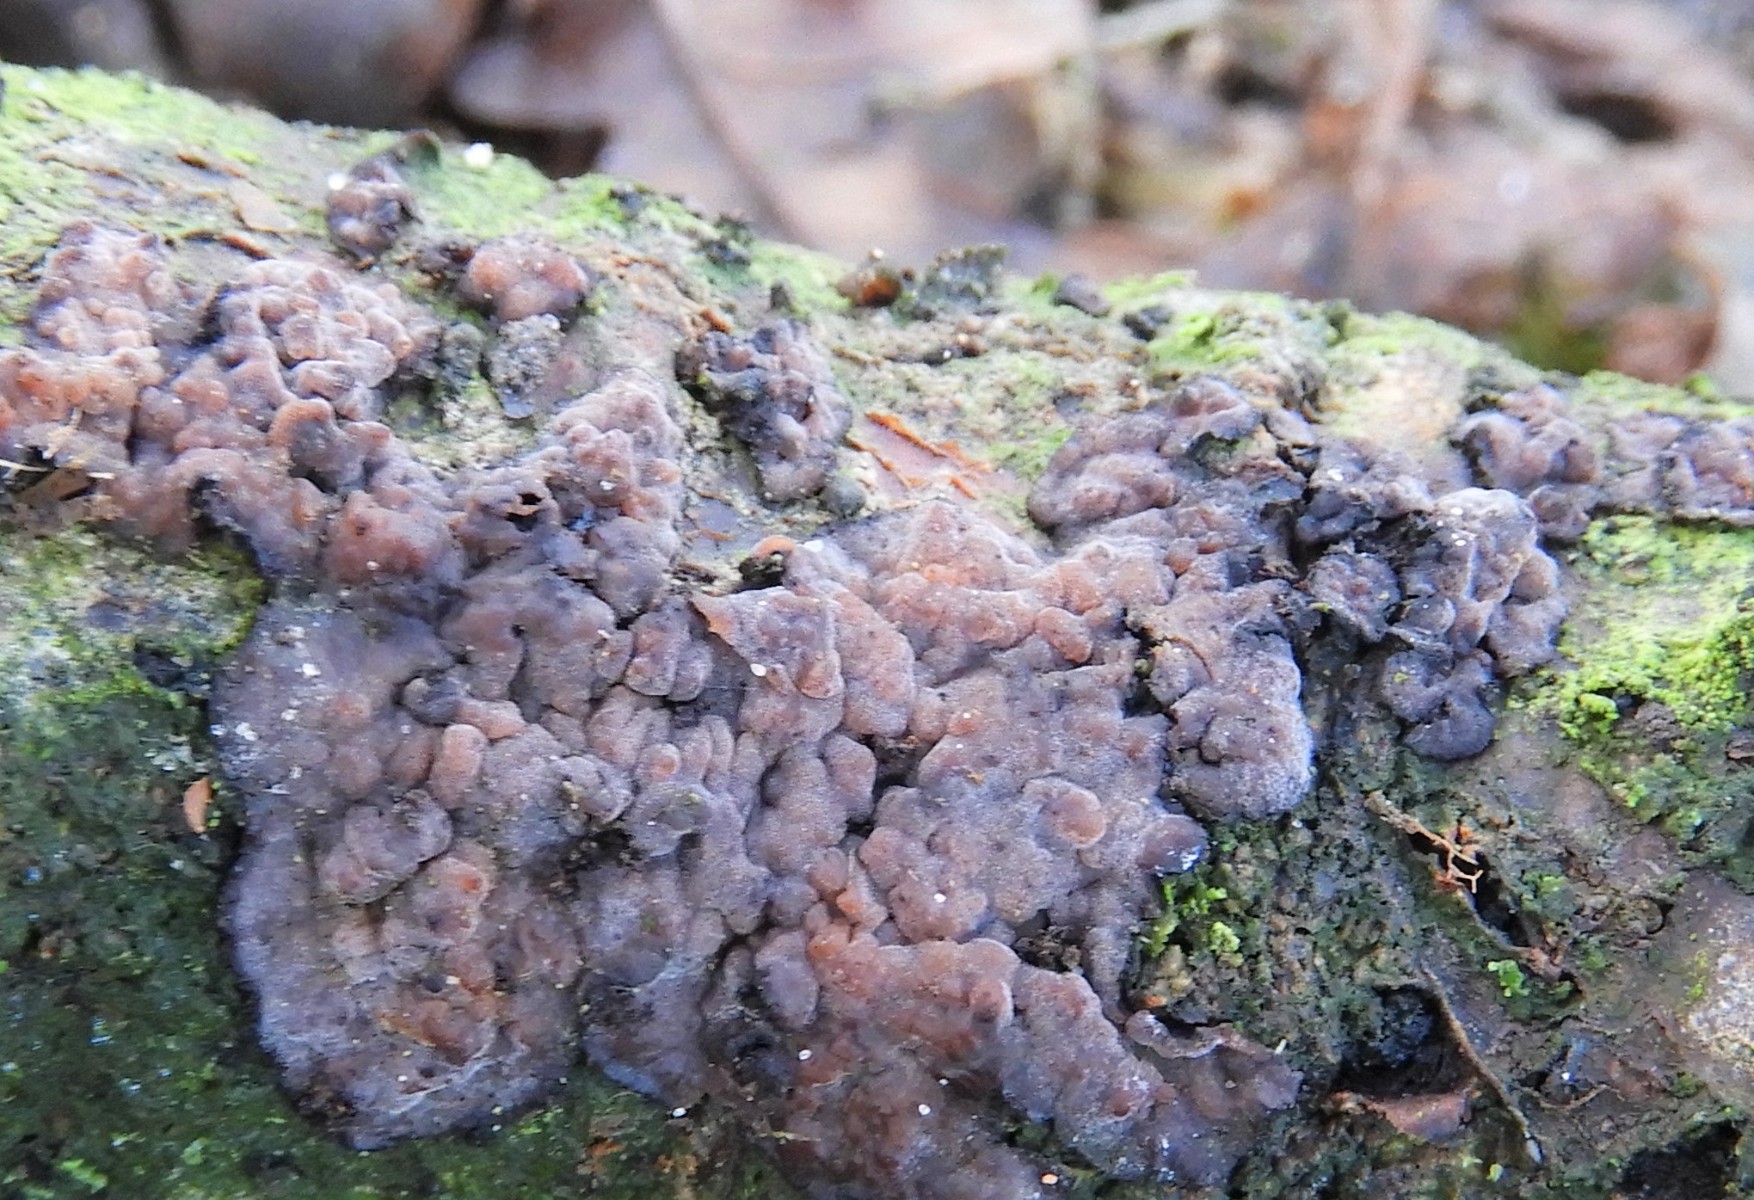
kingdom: Fungi
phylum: Basidiomycota
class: Agaricomycetes
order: Russulales
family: Peniophoraceae
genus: Peniophora
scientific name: Peniophora quercina
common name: ege-voksskind
